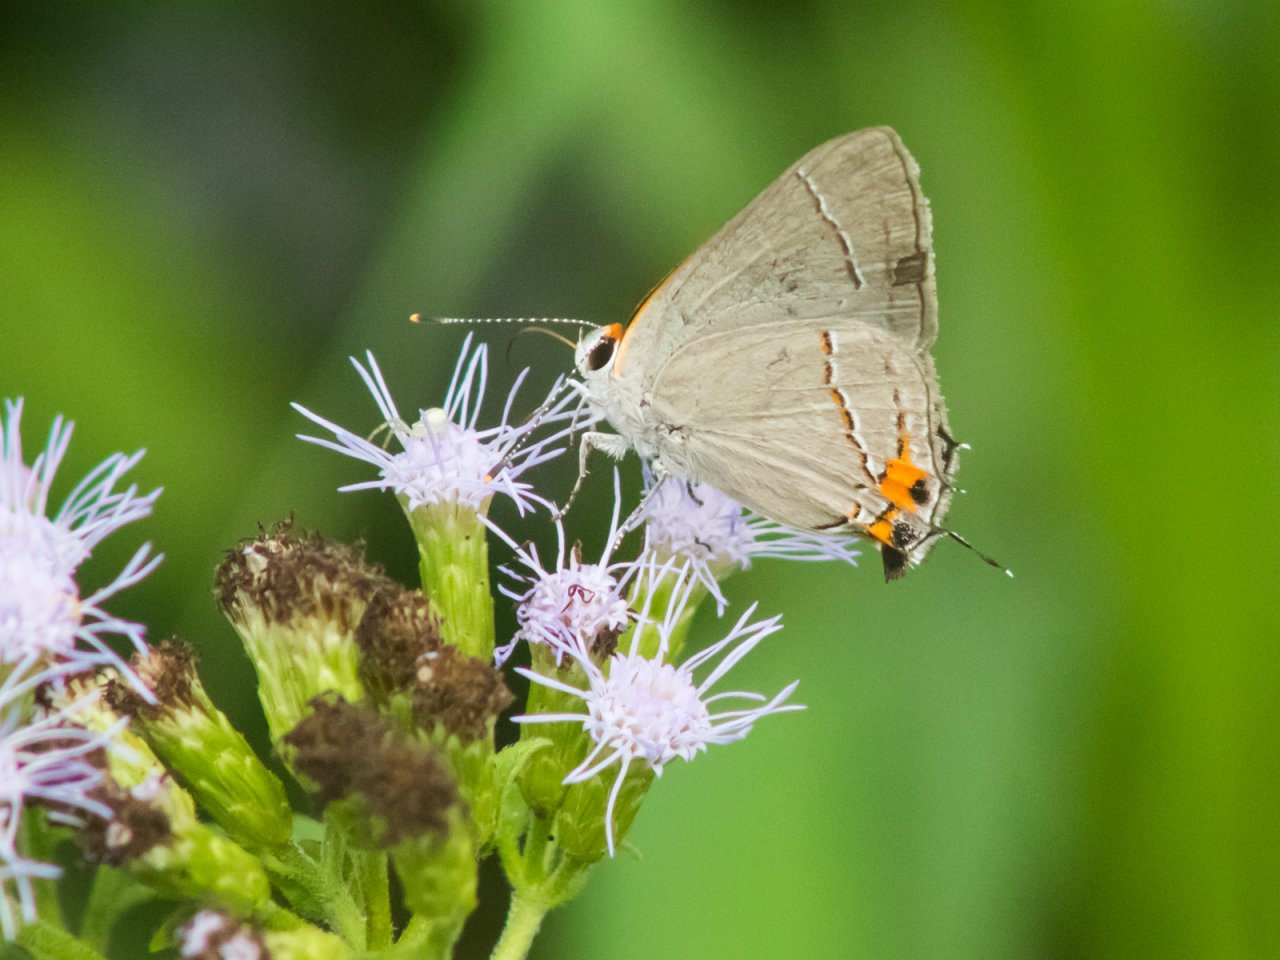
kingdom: Animalia
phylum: Arthropoda
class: Insecta
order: Lepidoptera
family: Lycaenidae
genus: Strymon
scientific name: Strymon melinus
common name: Gray Hairstreak
